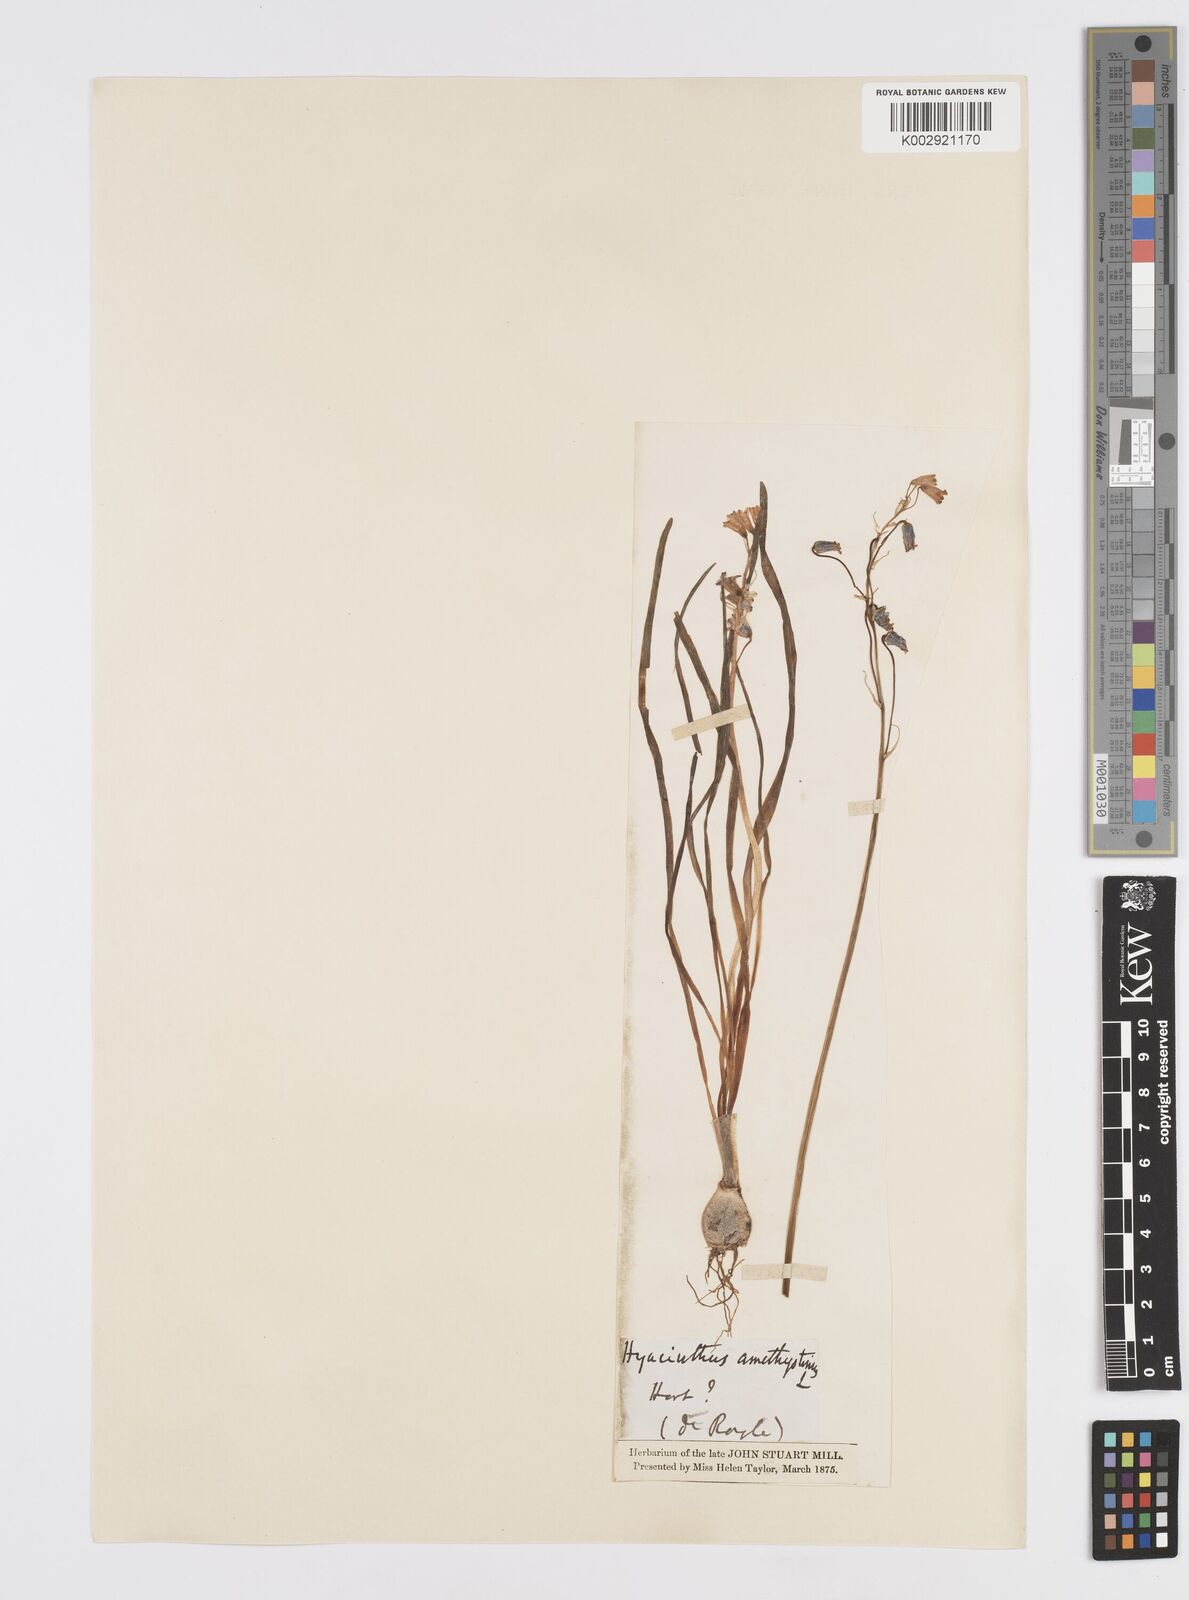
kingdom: Plantae
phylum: Tracheophyta
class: Liliopsida
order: Asparagales
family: Asparagaceae
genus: Brimeura
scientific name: Brimeura
